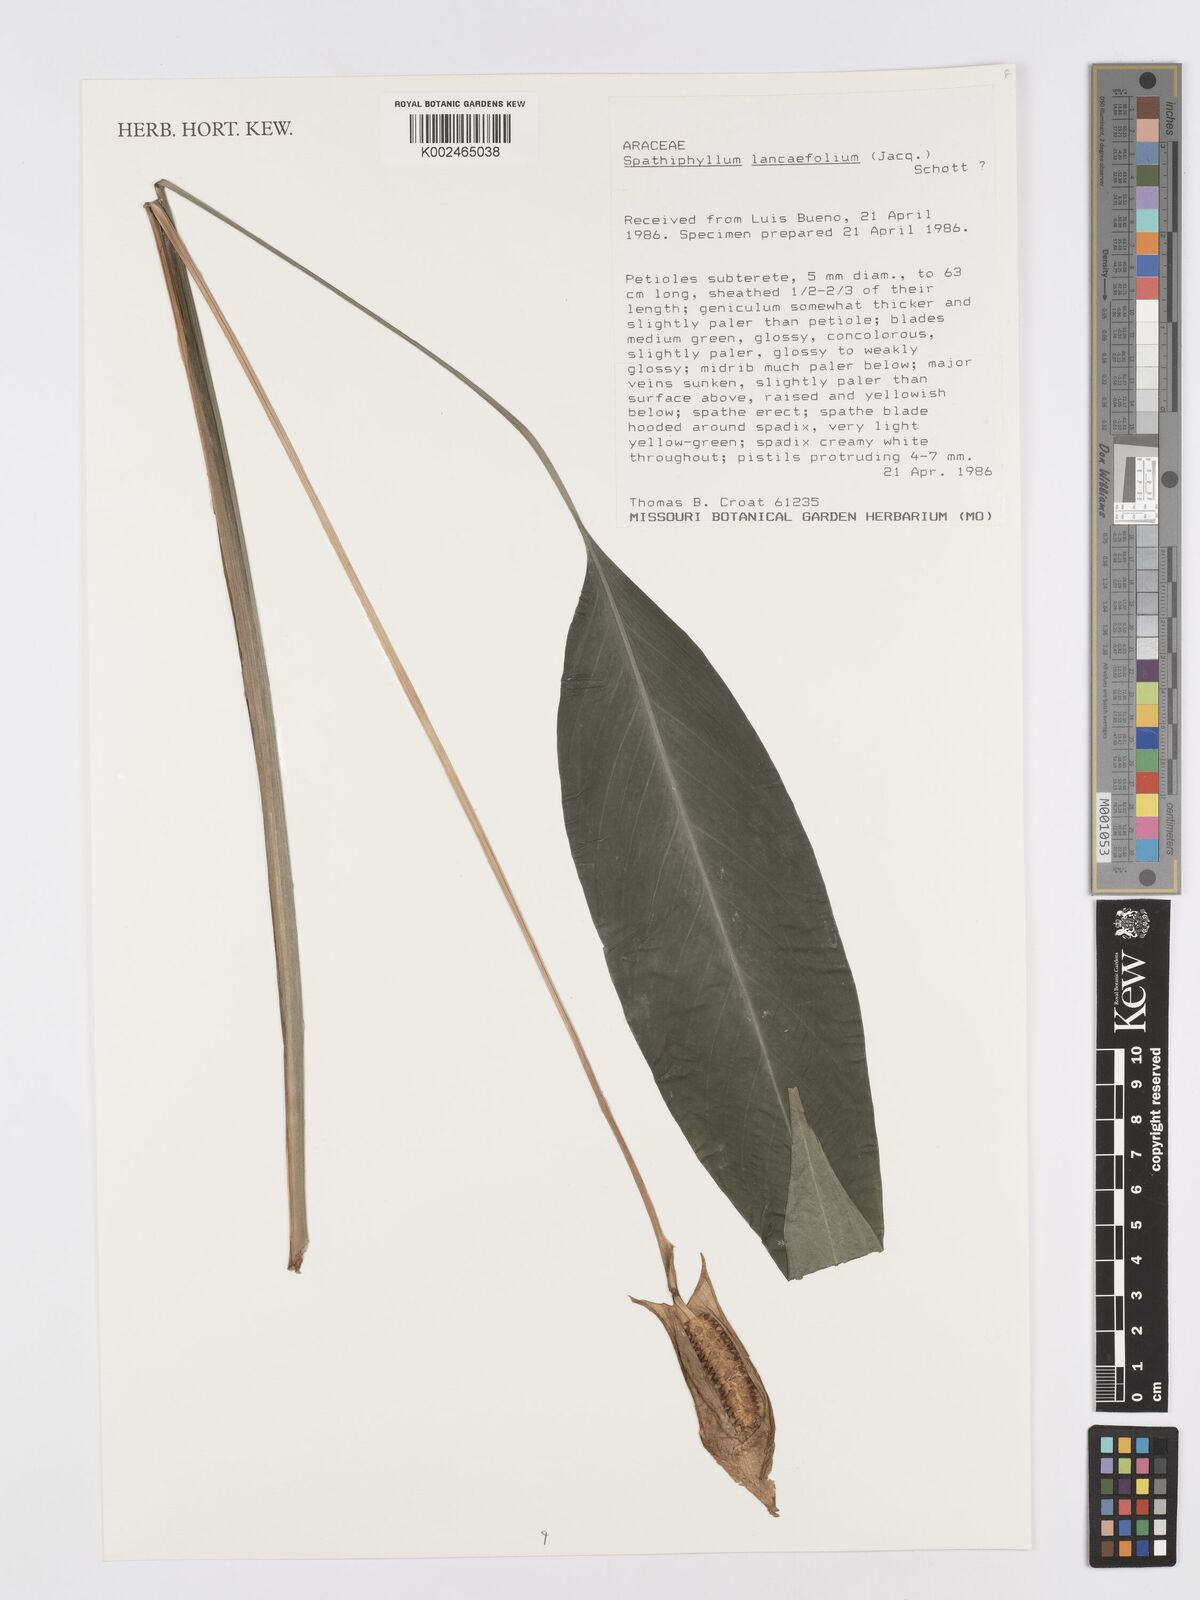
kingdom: Plantae
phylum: Tracheophyta
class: Liliopsida
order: Alismatales
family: Araceae
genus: Spathiphyllum
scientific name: Spathiphyllum lanceifolium
